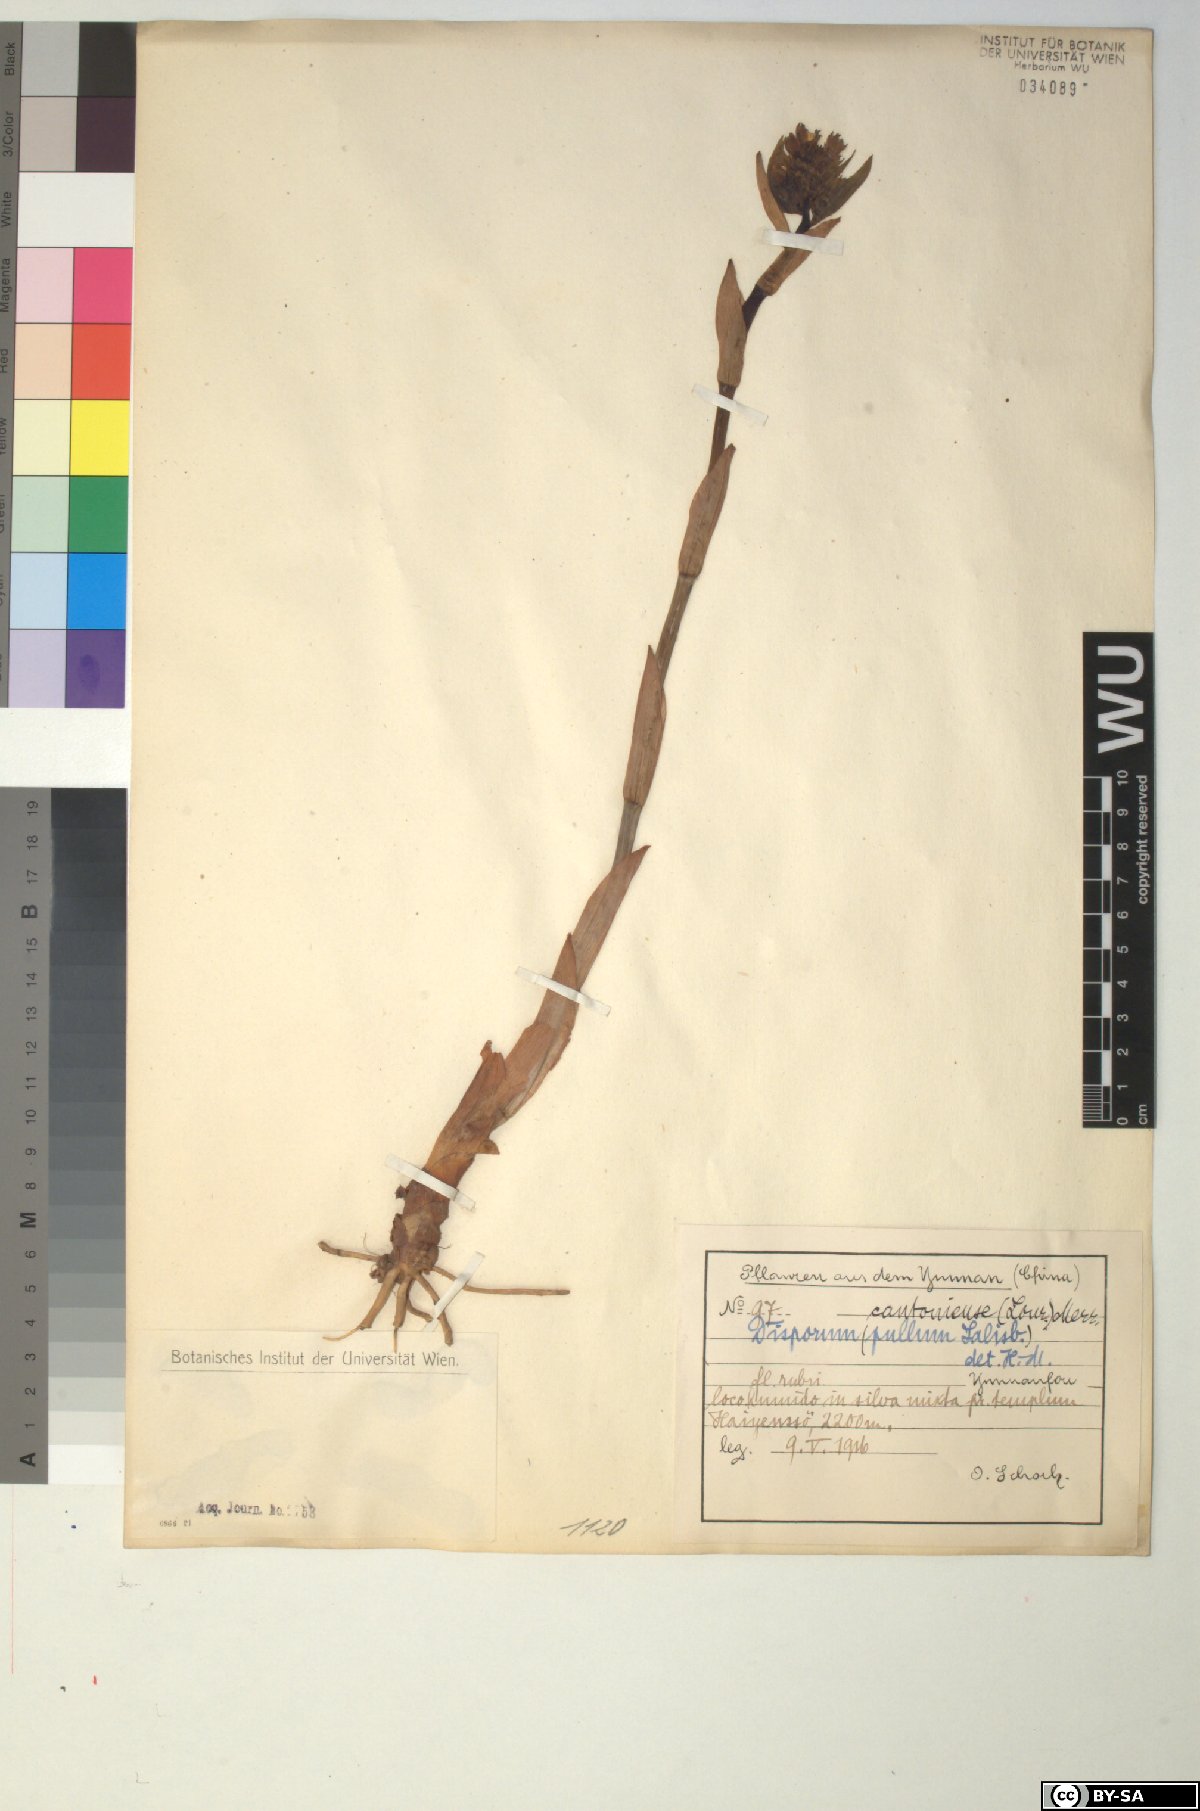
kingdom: Plantae
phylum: Tracheophyta
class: Liliopsida
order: Liliales
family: Colchicaceae
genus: Disporum
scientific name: Disporum cantoniense
